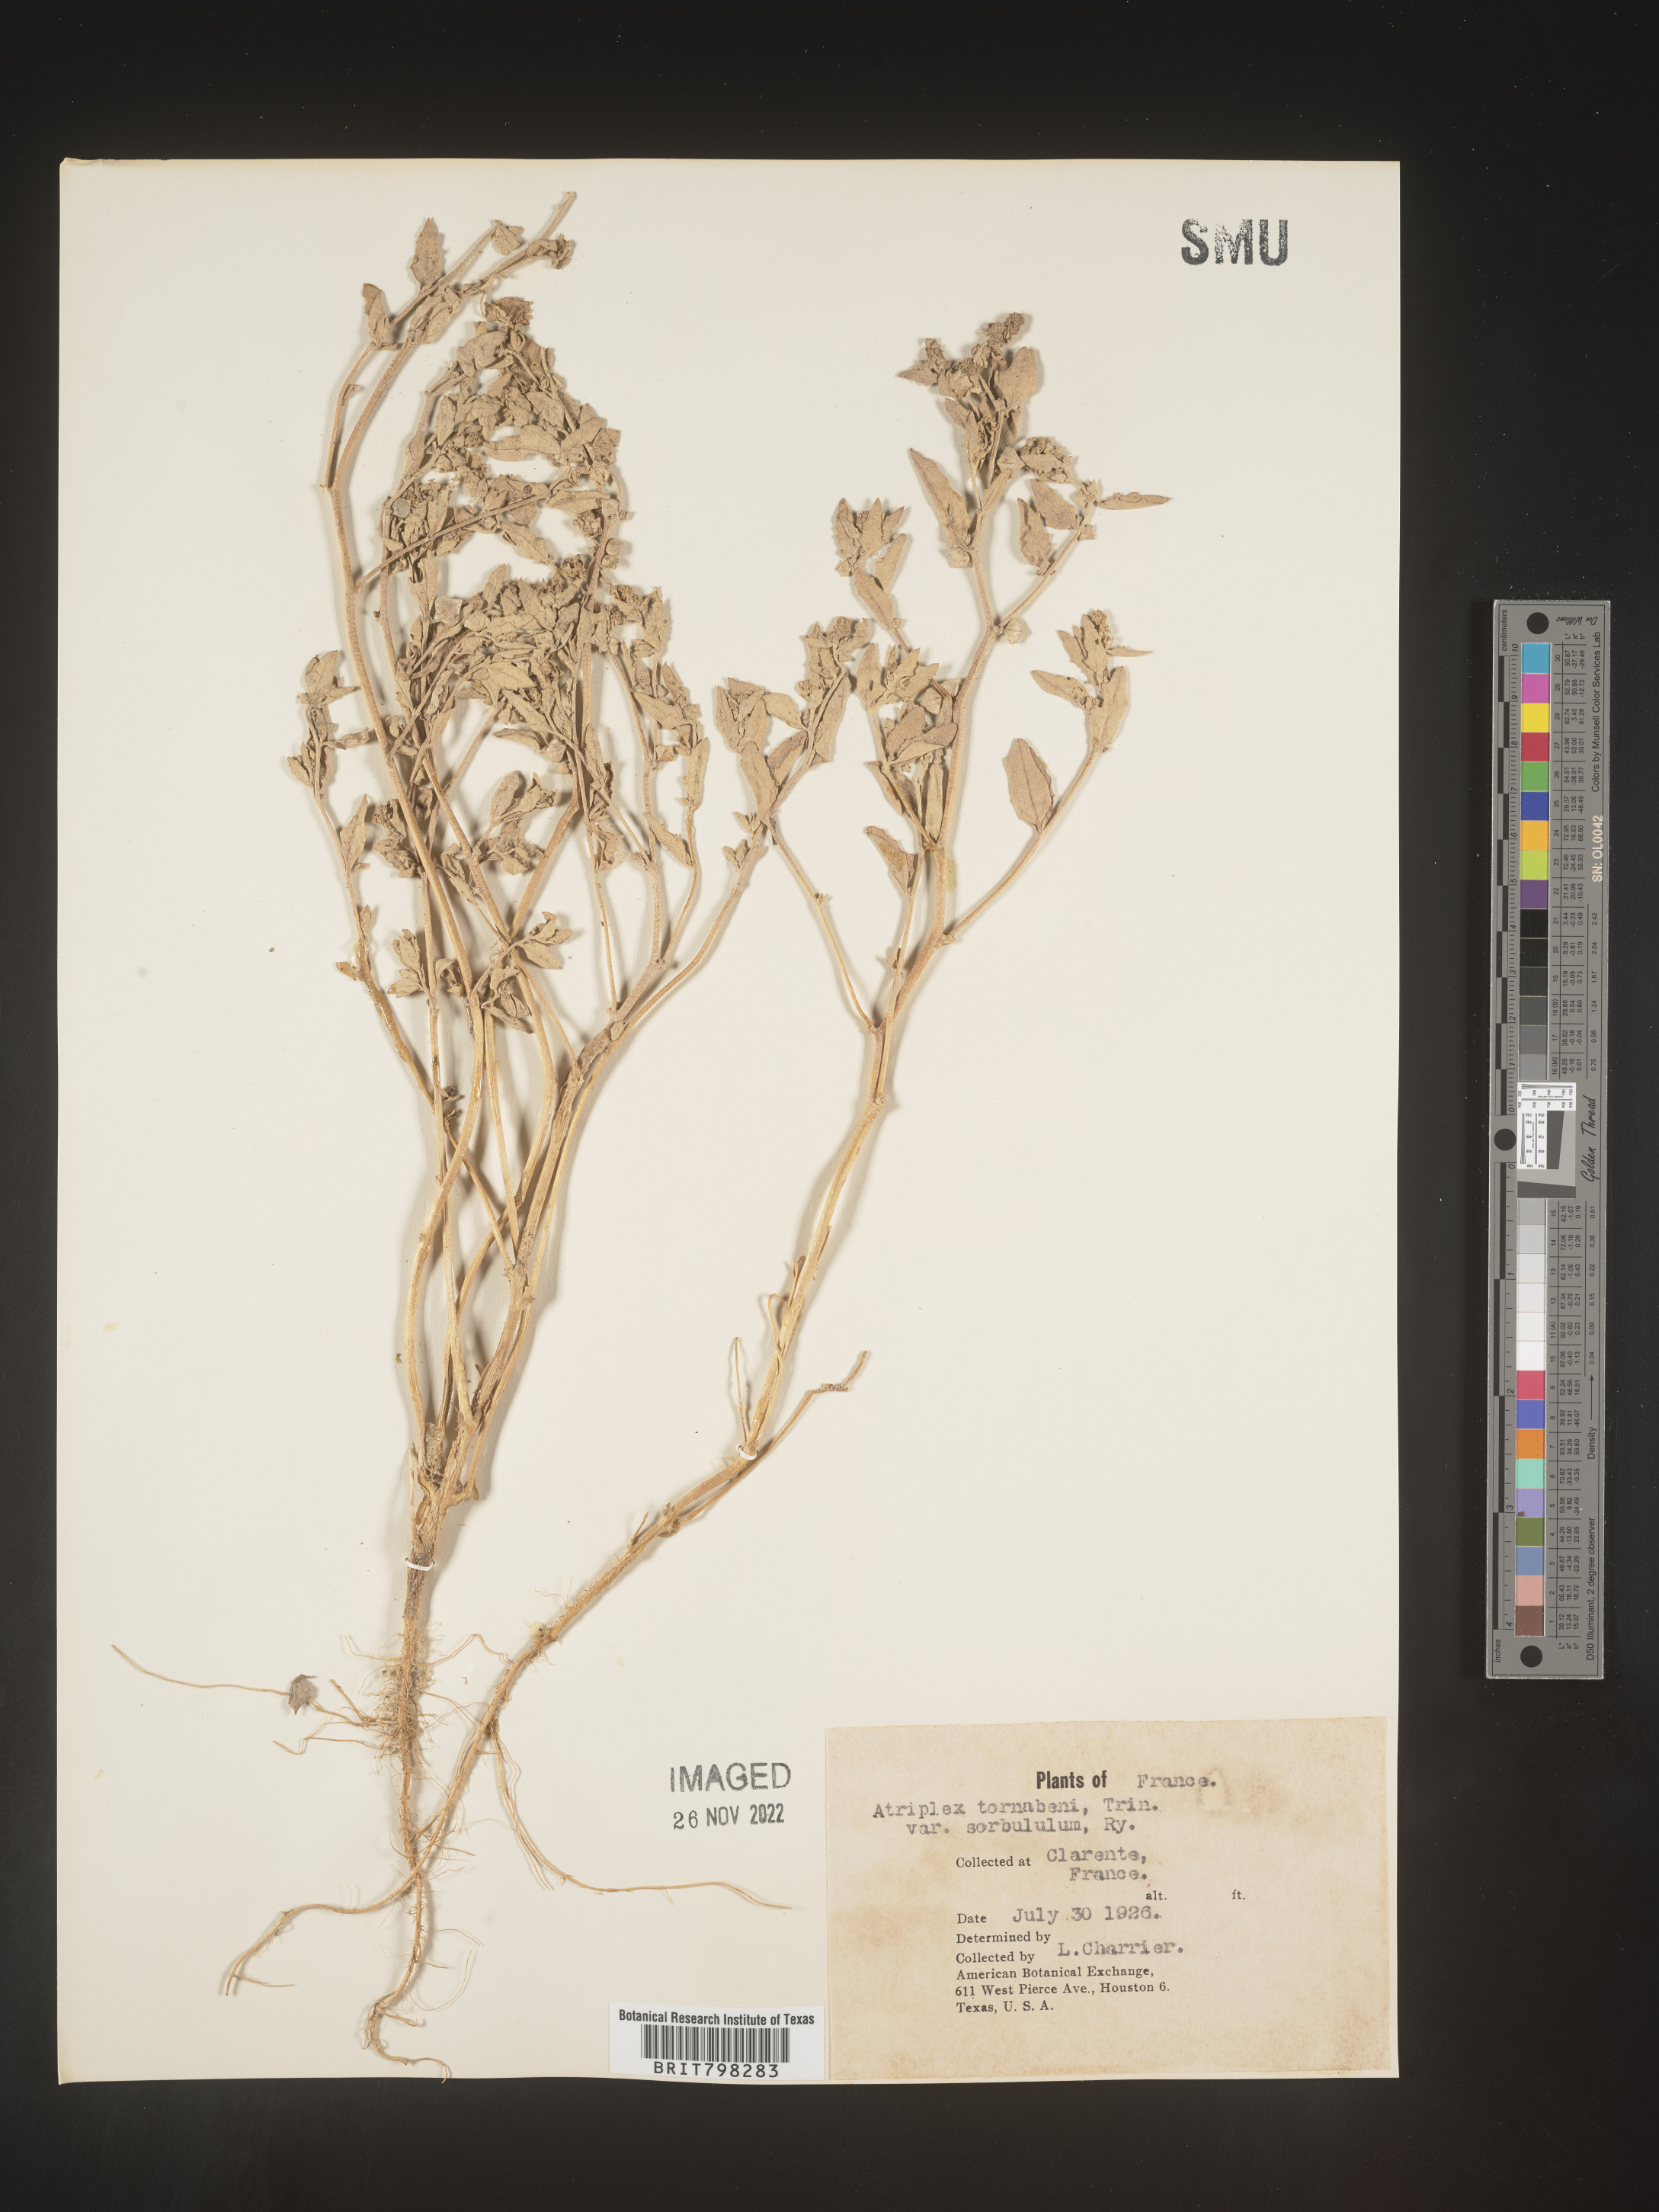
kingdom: Plantae
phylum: Tracheophyta
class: Magnoliopsida
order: Caryophyllales
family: Amaranthaceae
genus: Atriplex
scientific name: Atriplex
